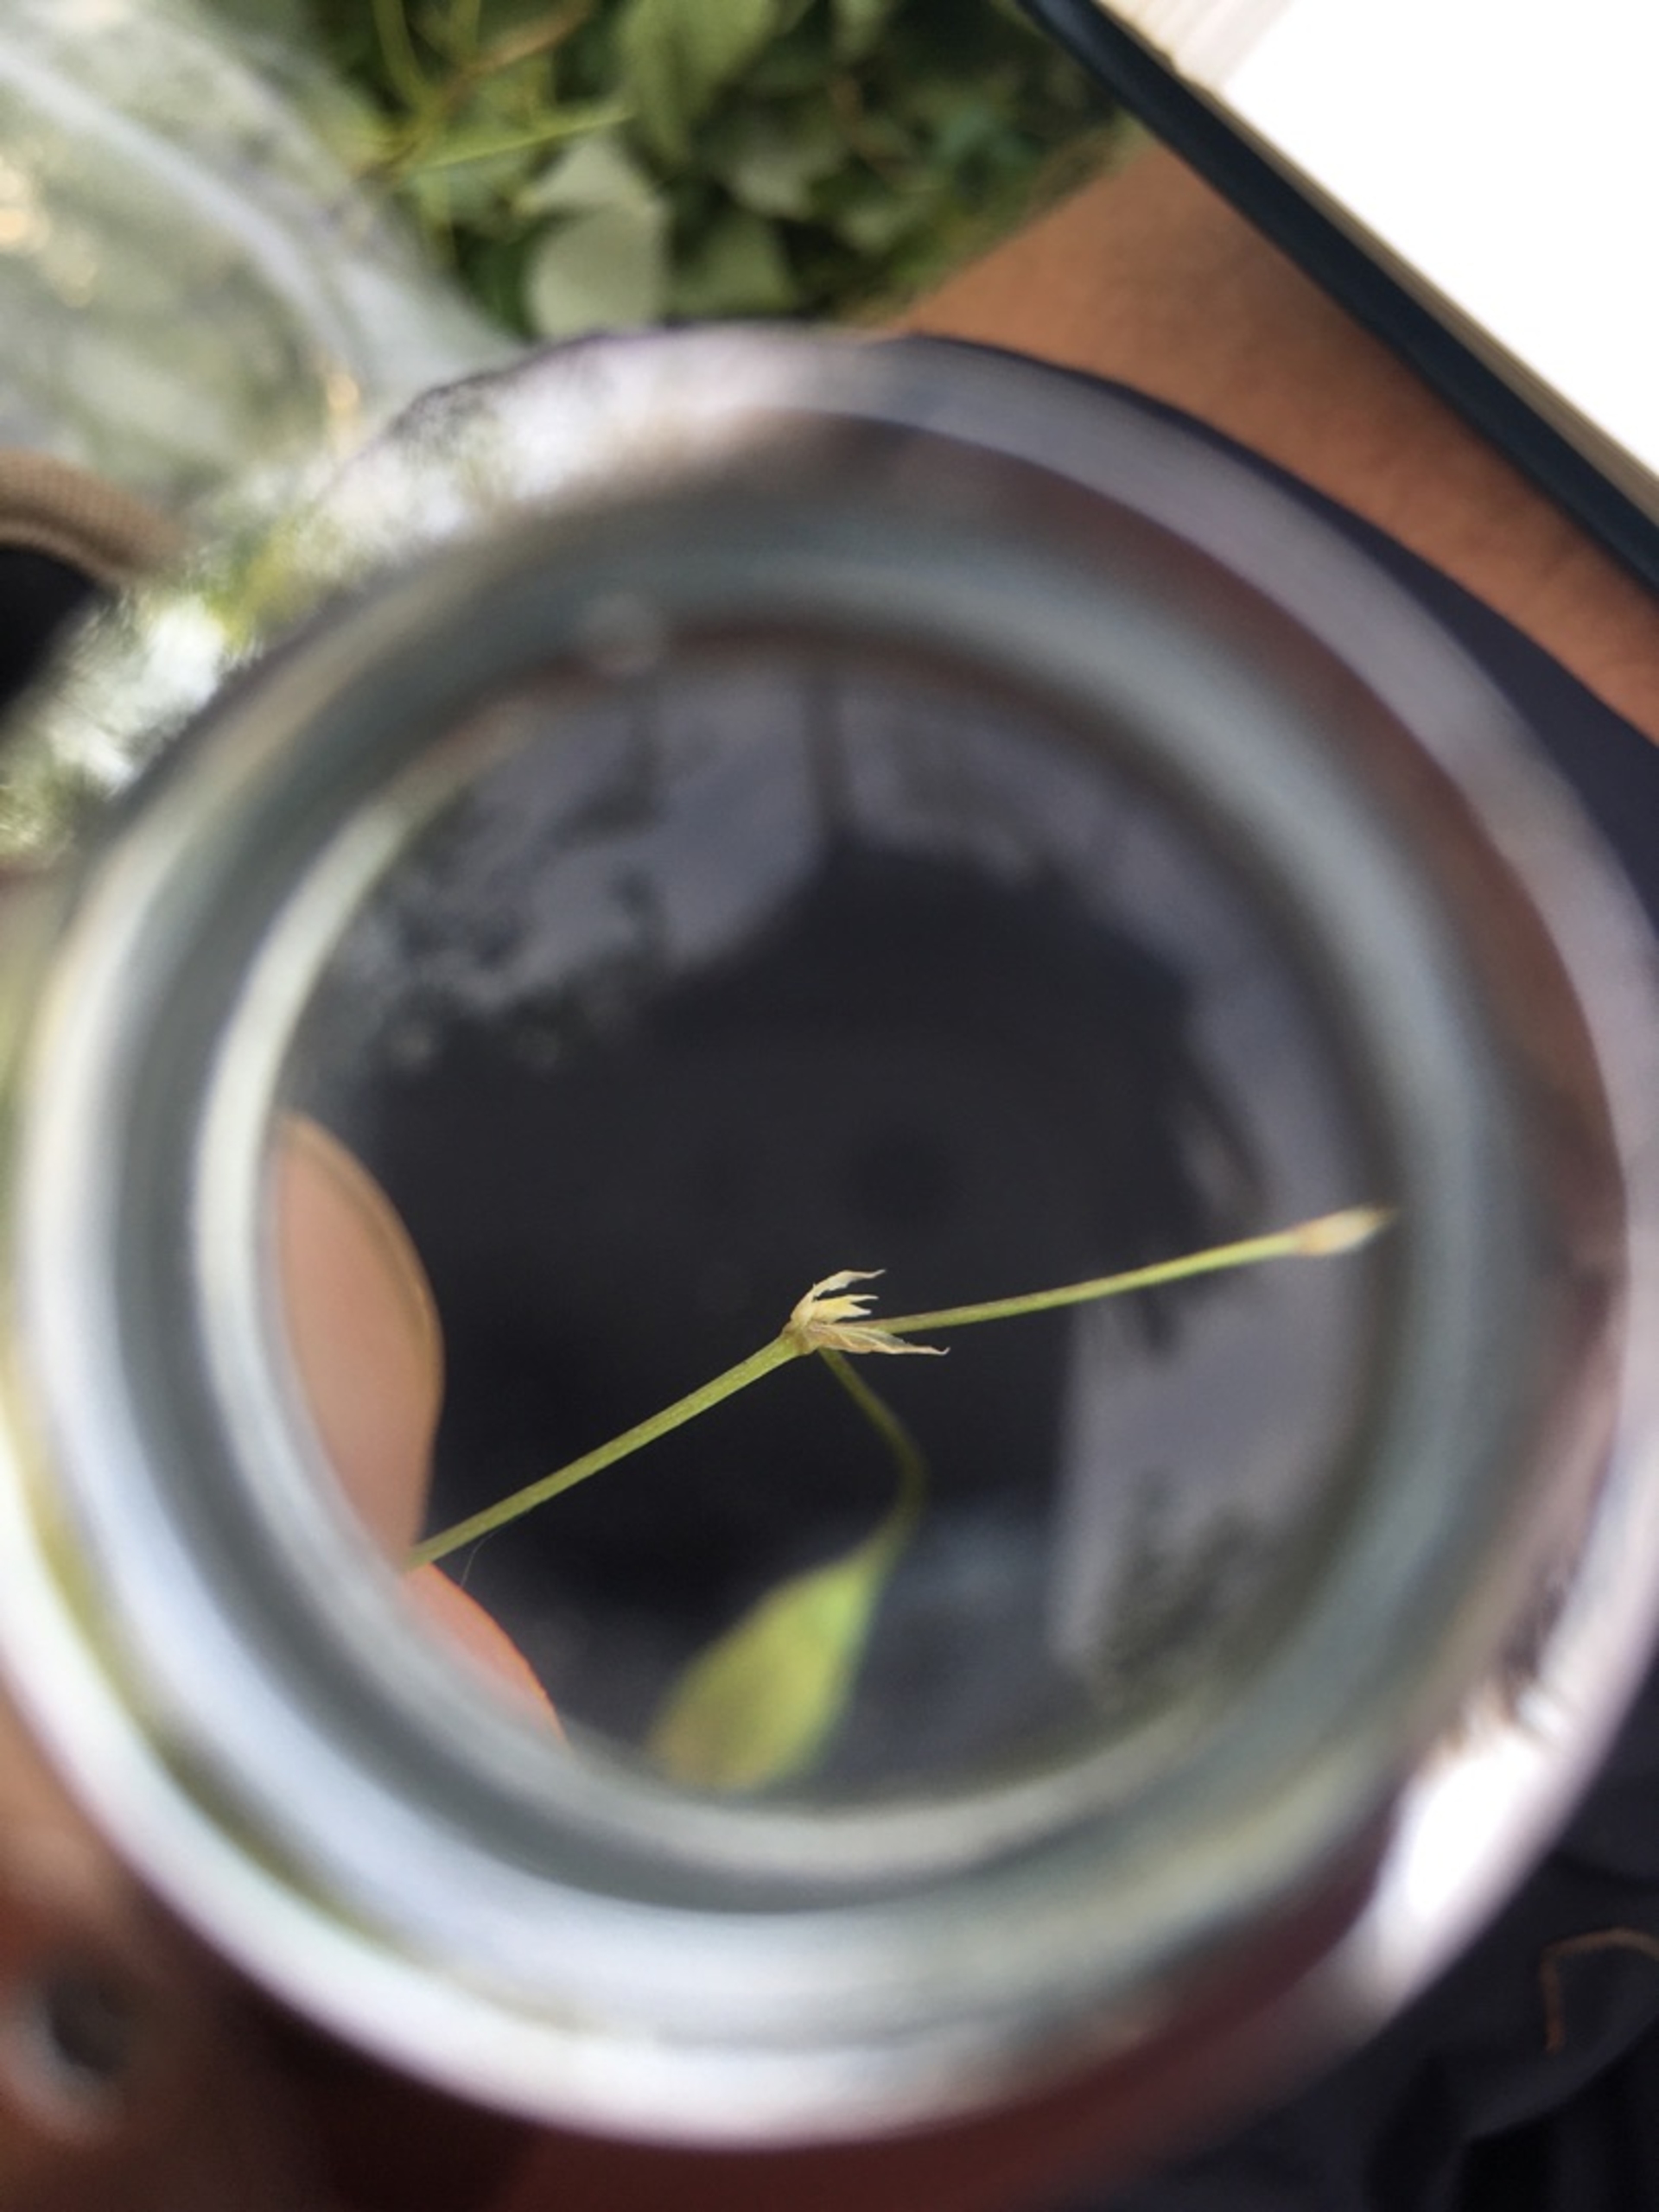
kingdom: Plantae
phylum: Tracheophyta
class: Magnoliopsida
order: Caryophyllales
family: Caryophyllaceae
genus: Stellaria
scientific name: Stellaria graminea
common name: Græsbladet fladstjerne
